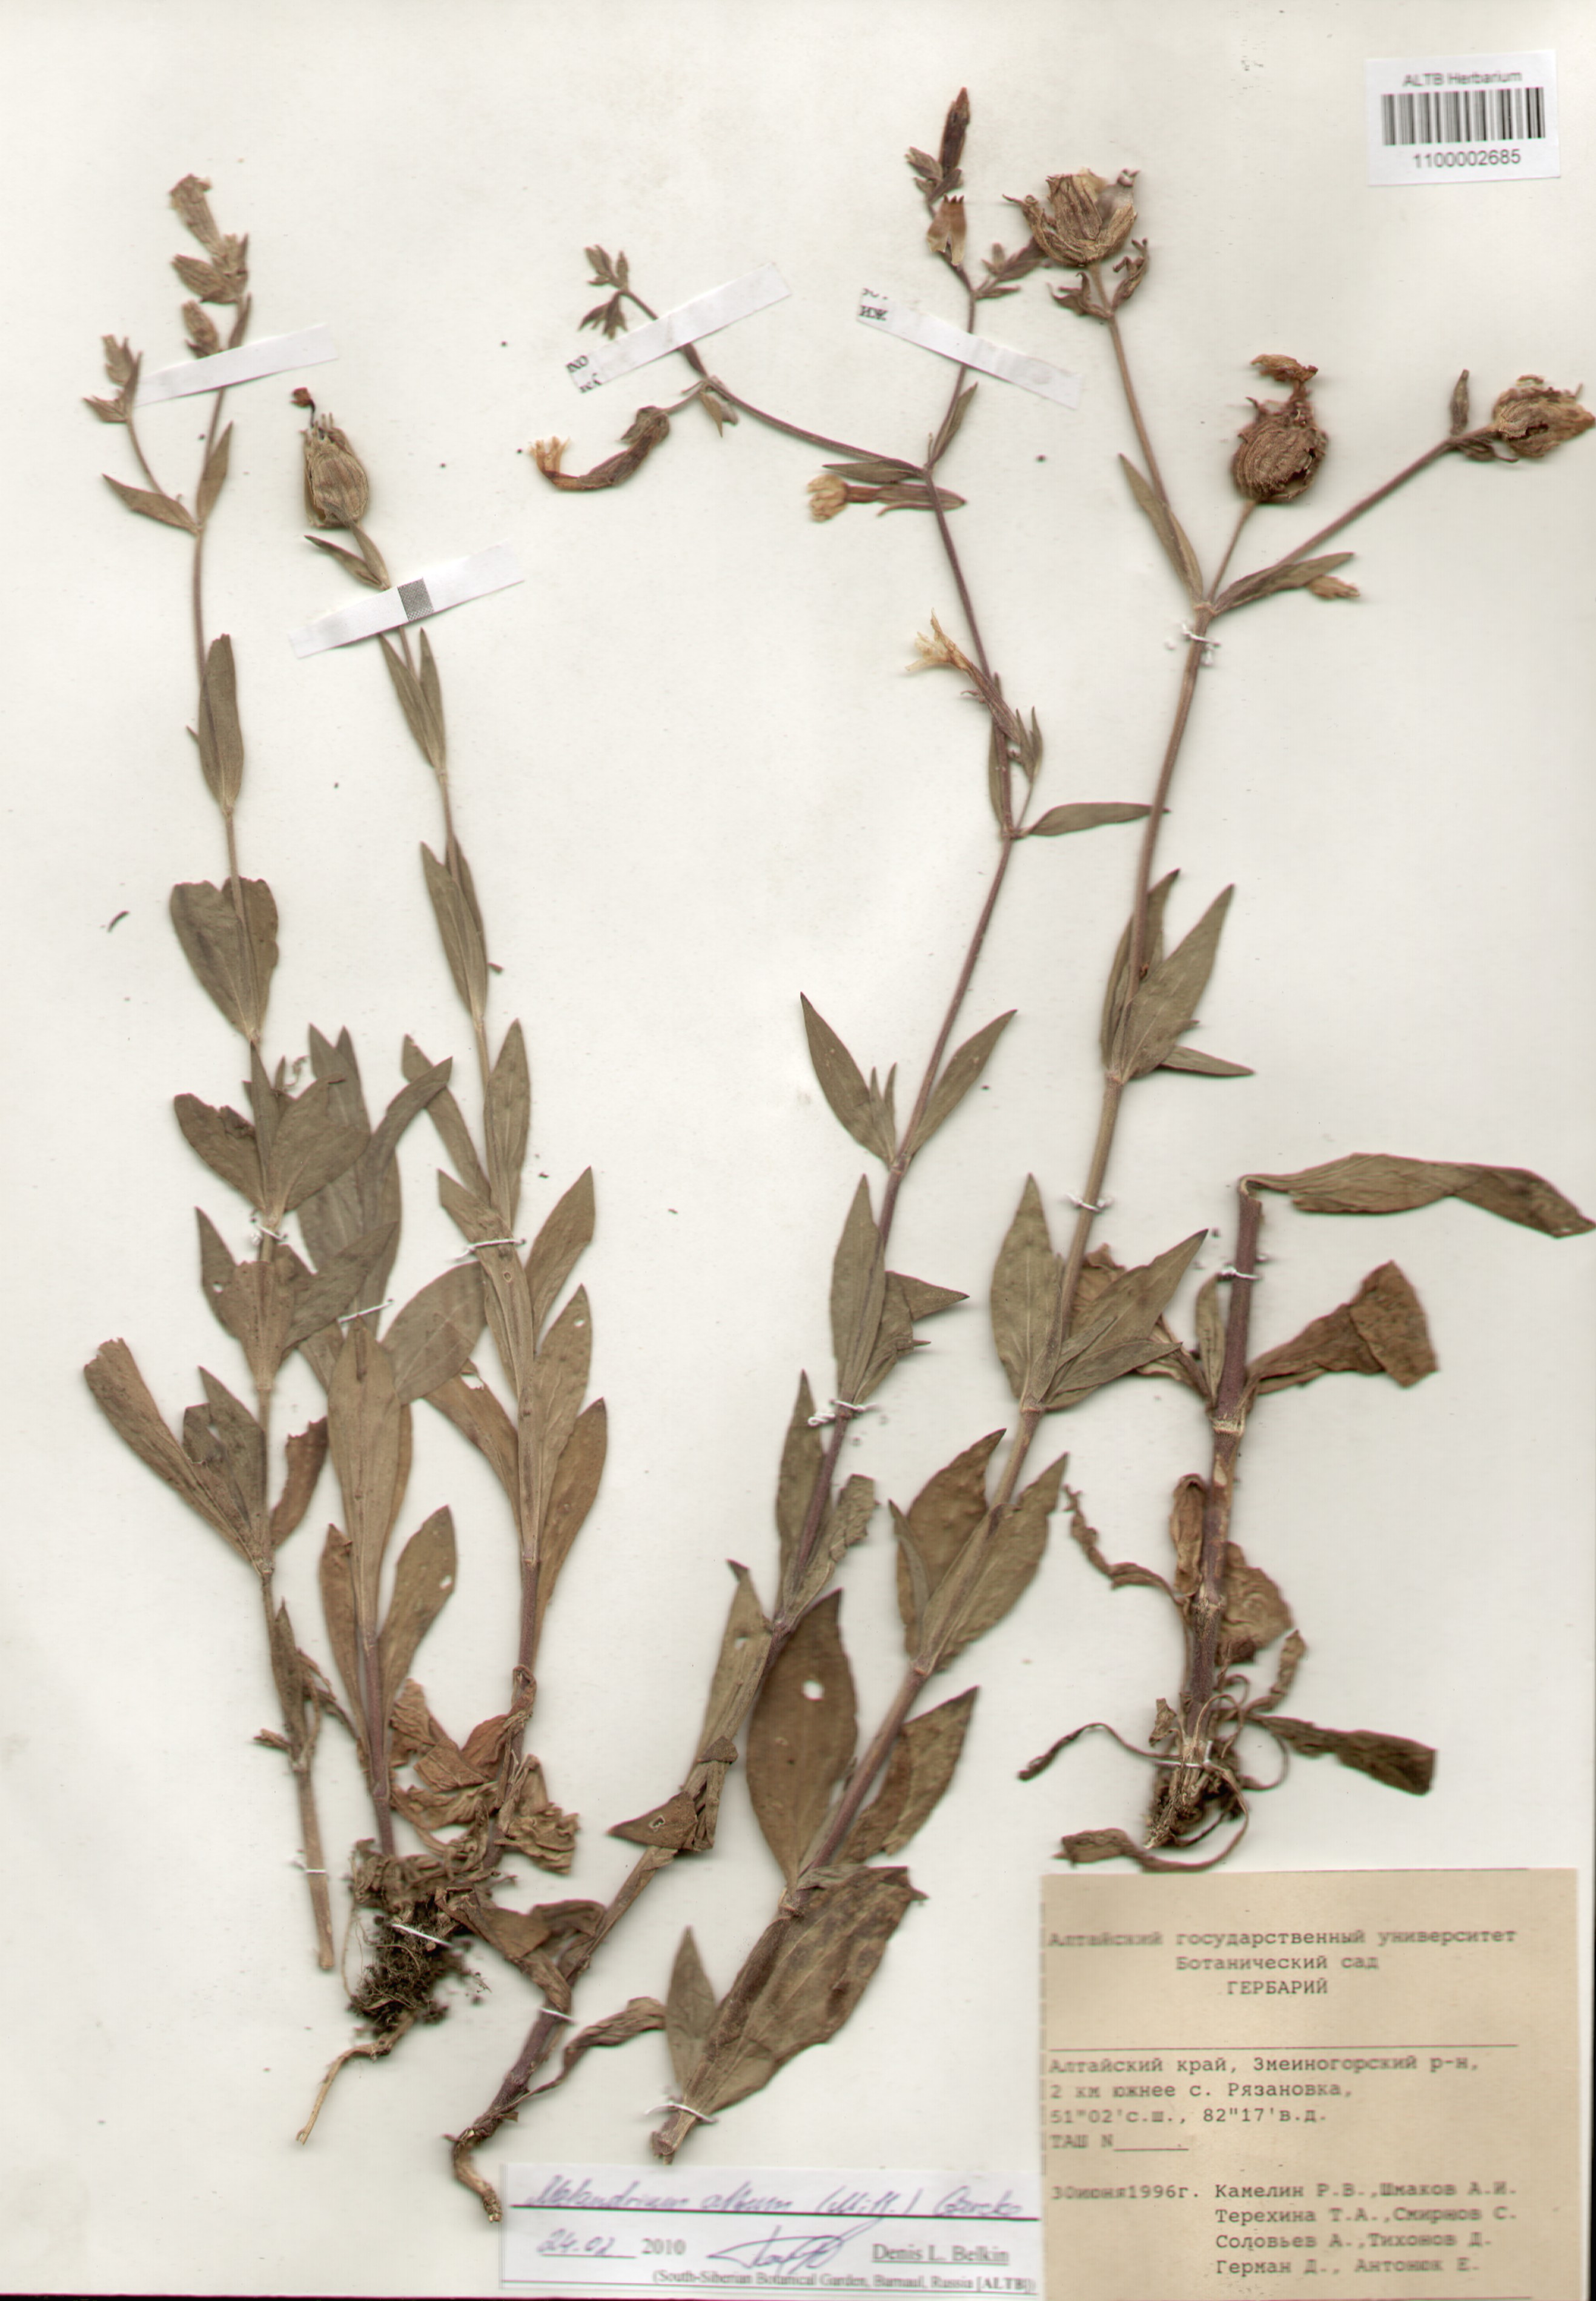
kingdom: Plantae
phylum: Tracheophyta
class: Magnoliopsida
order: Caryophyllales
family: Caryophyllaceae
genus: Silene
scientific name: Silene latifolia
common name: White campion
